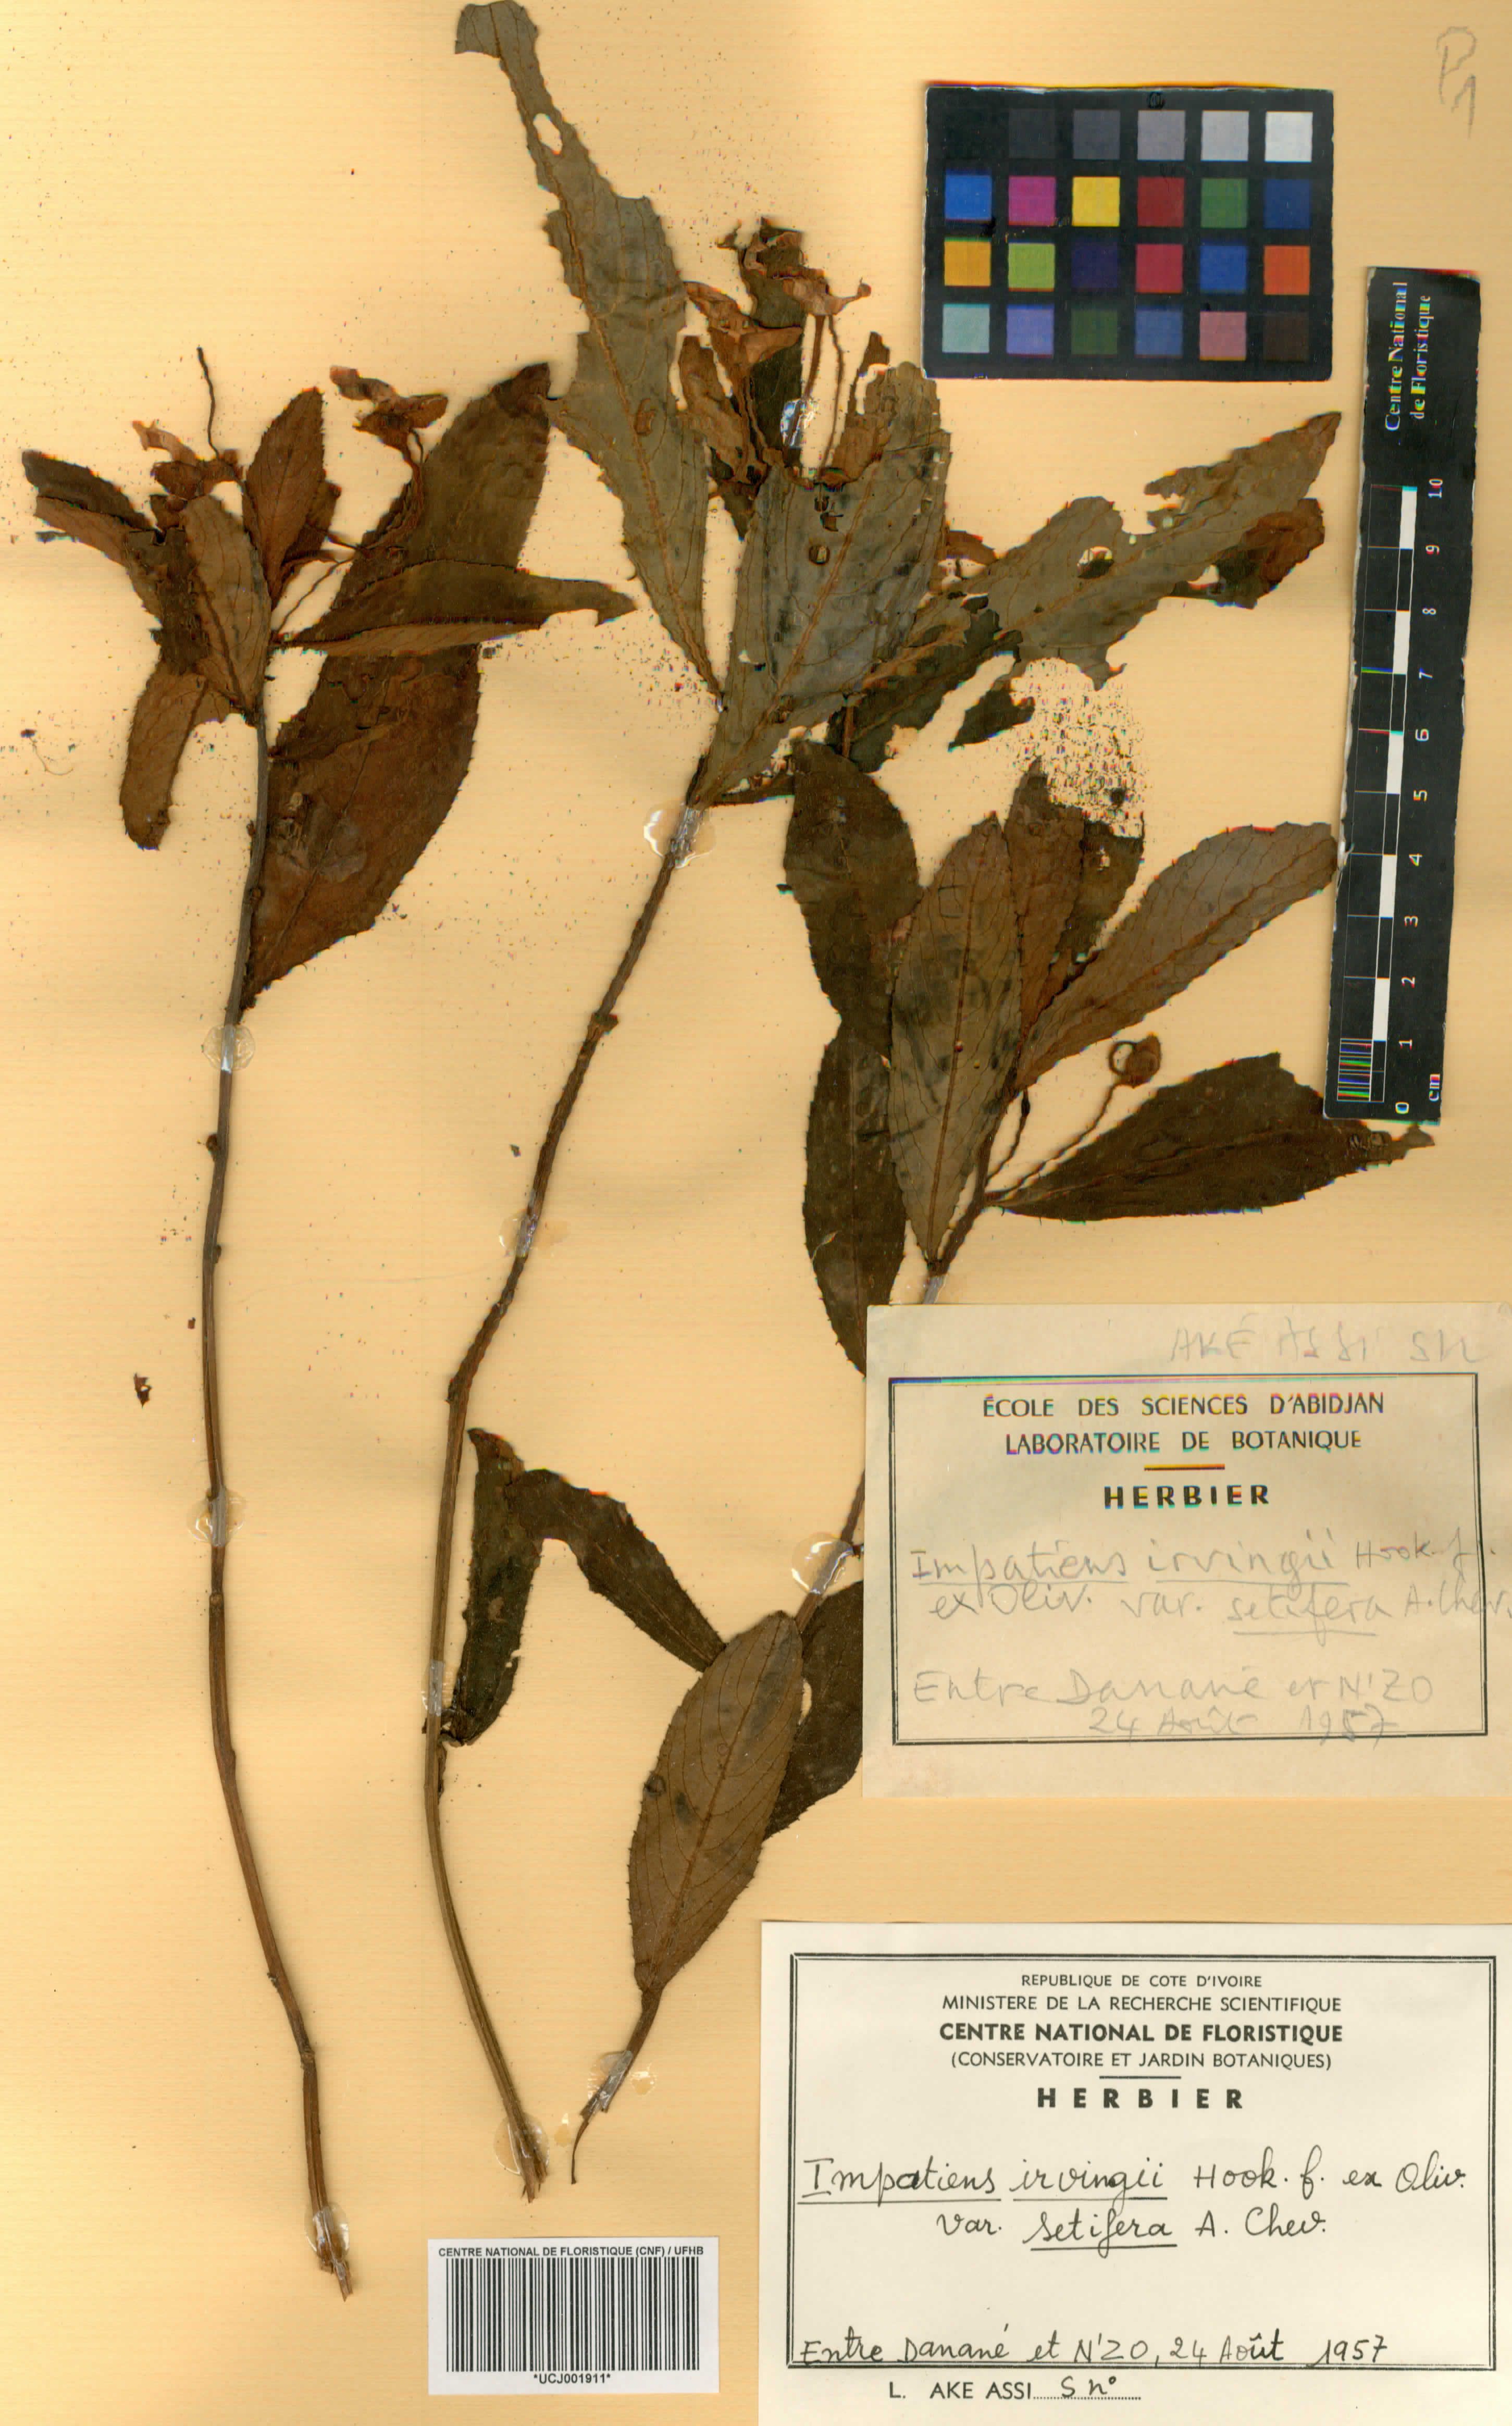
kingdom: Plantae
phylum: Tracheophyta
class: Magnoliopsida
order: Ericales
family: Balsaminaceae
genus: Impatiens
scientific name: Impatiens irvingii
